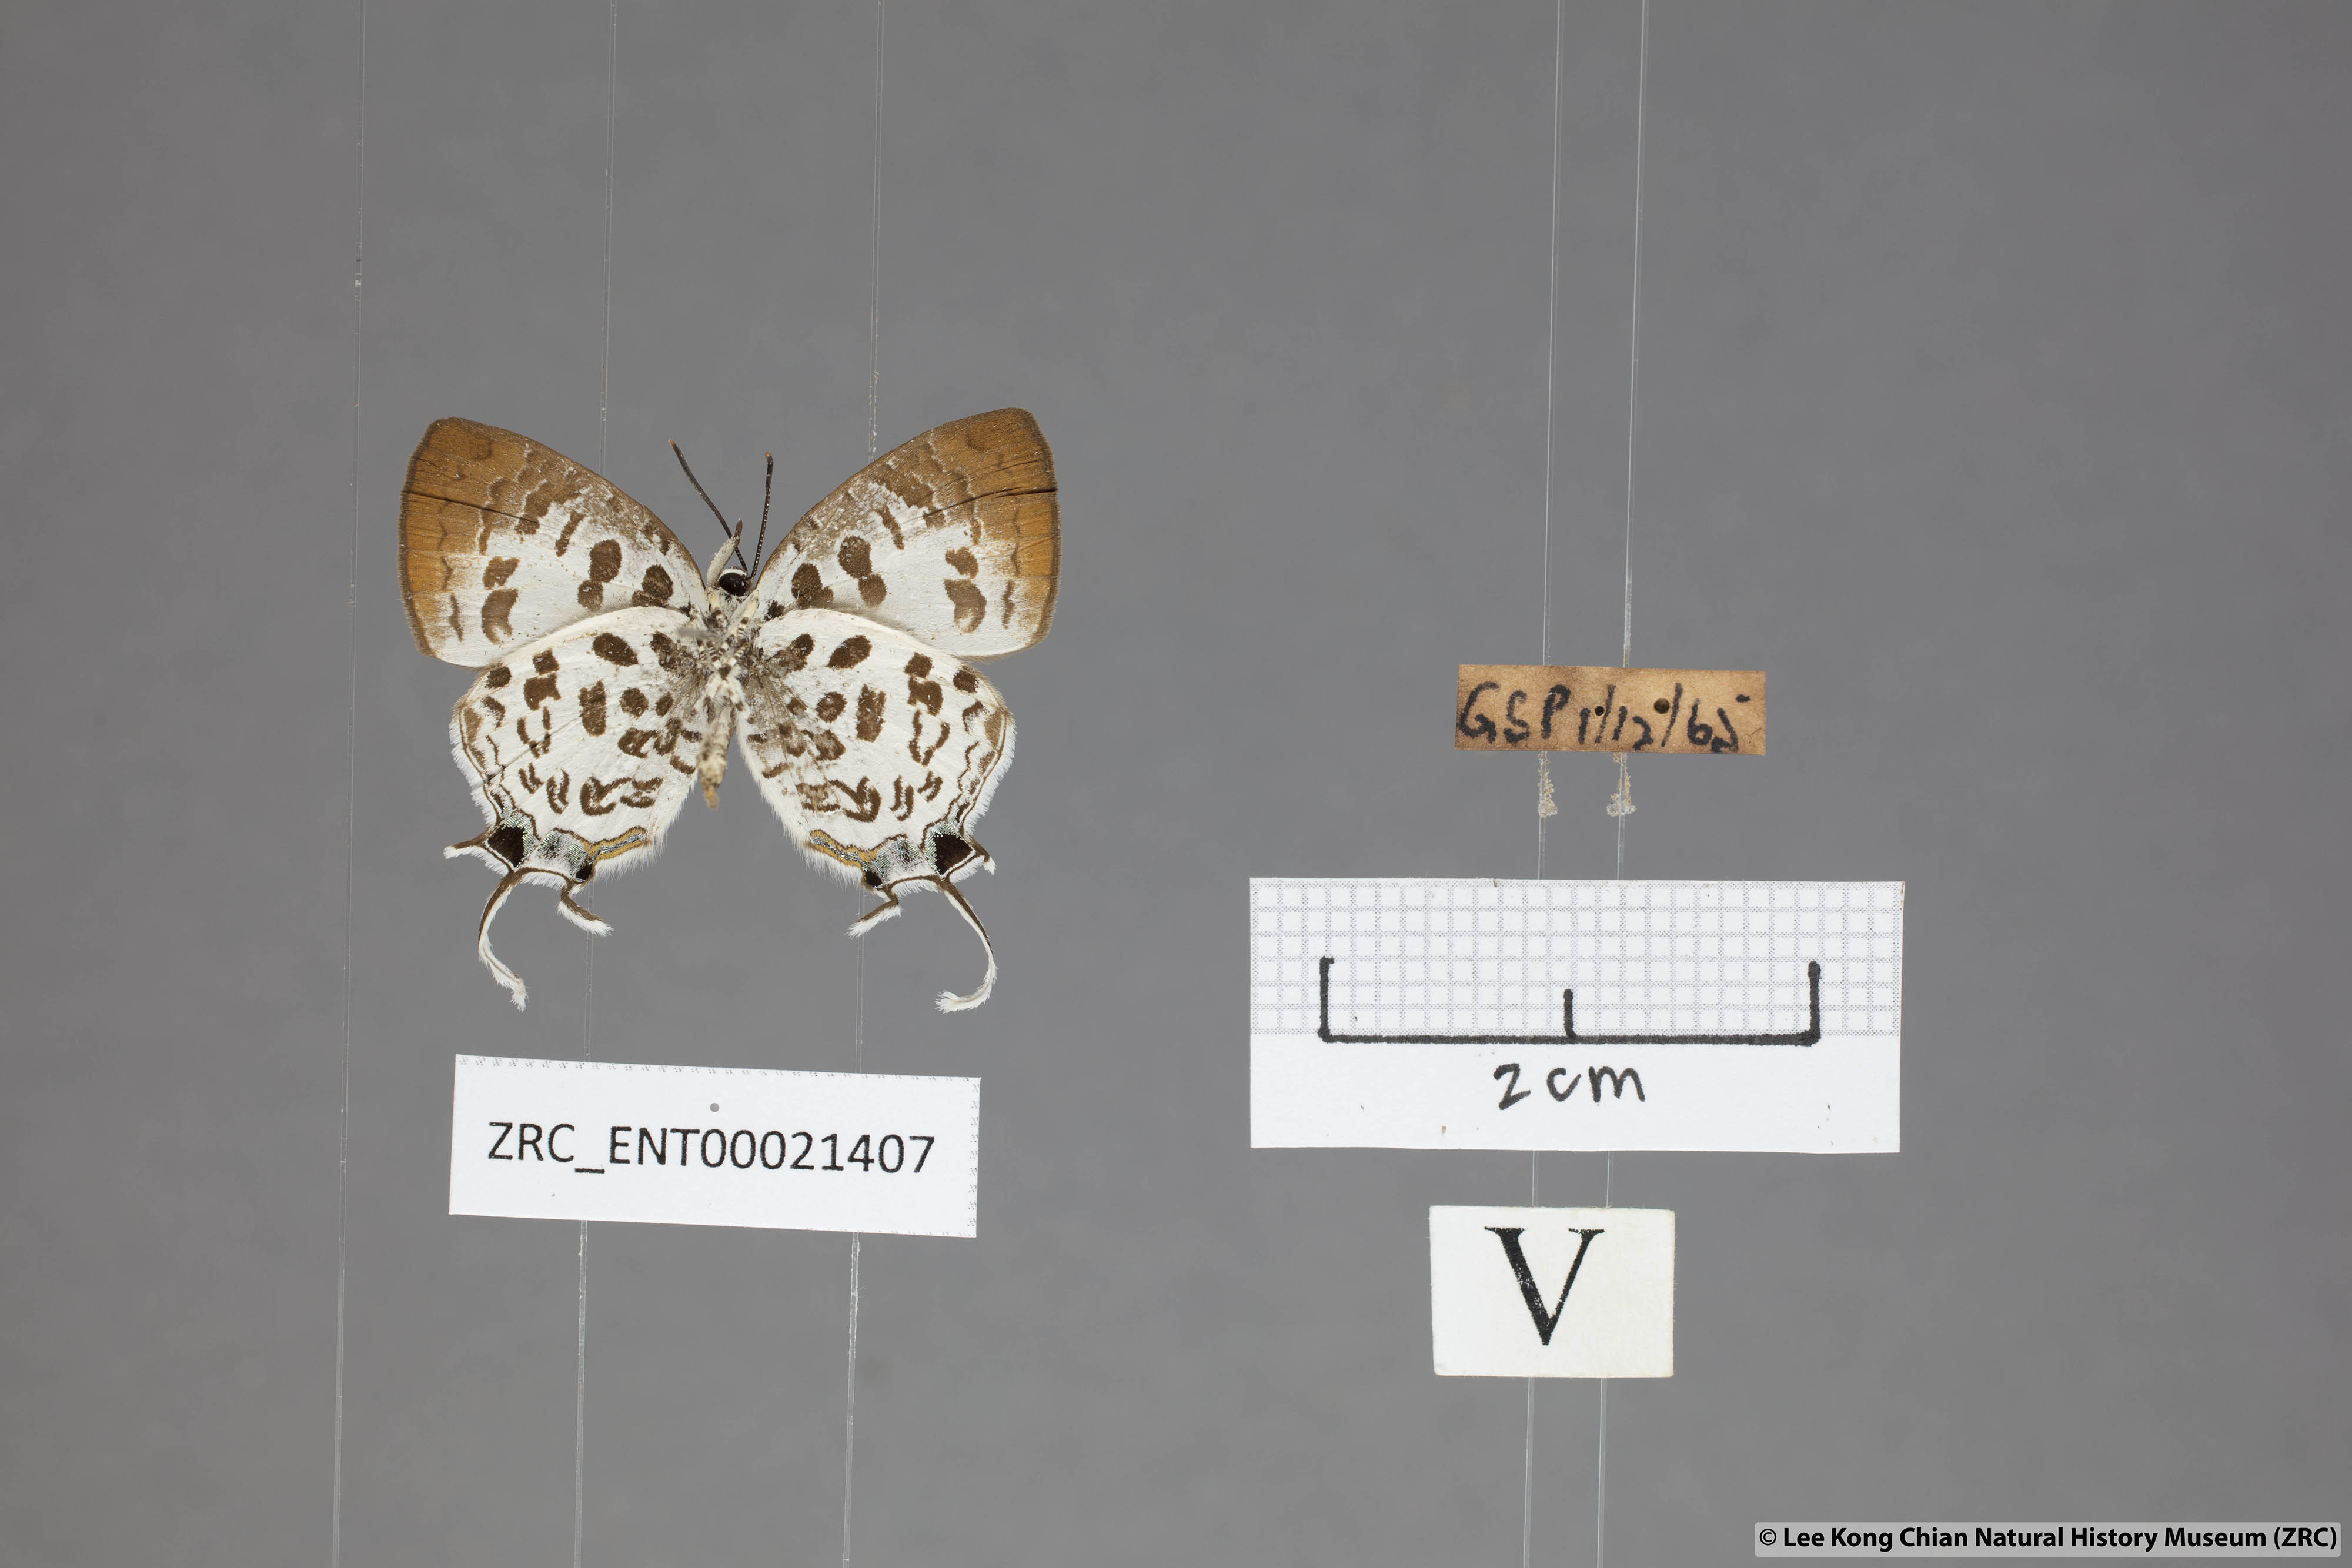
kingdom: Animalia
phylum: Arthropoda
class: Insecta
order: Lepidoptera
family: Lycaenidae
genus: Drupadia
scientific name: Drupadia scaeva
